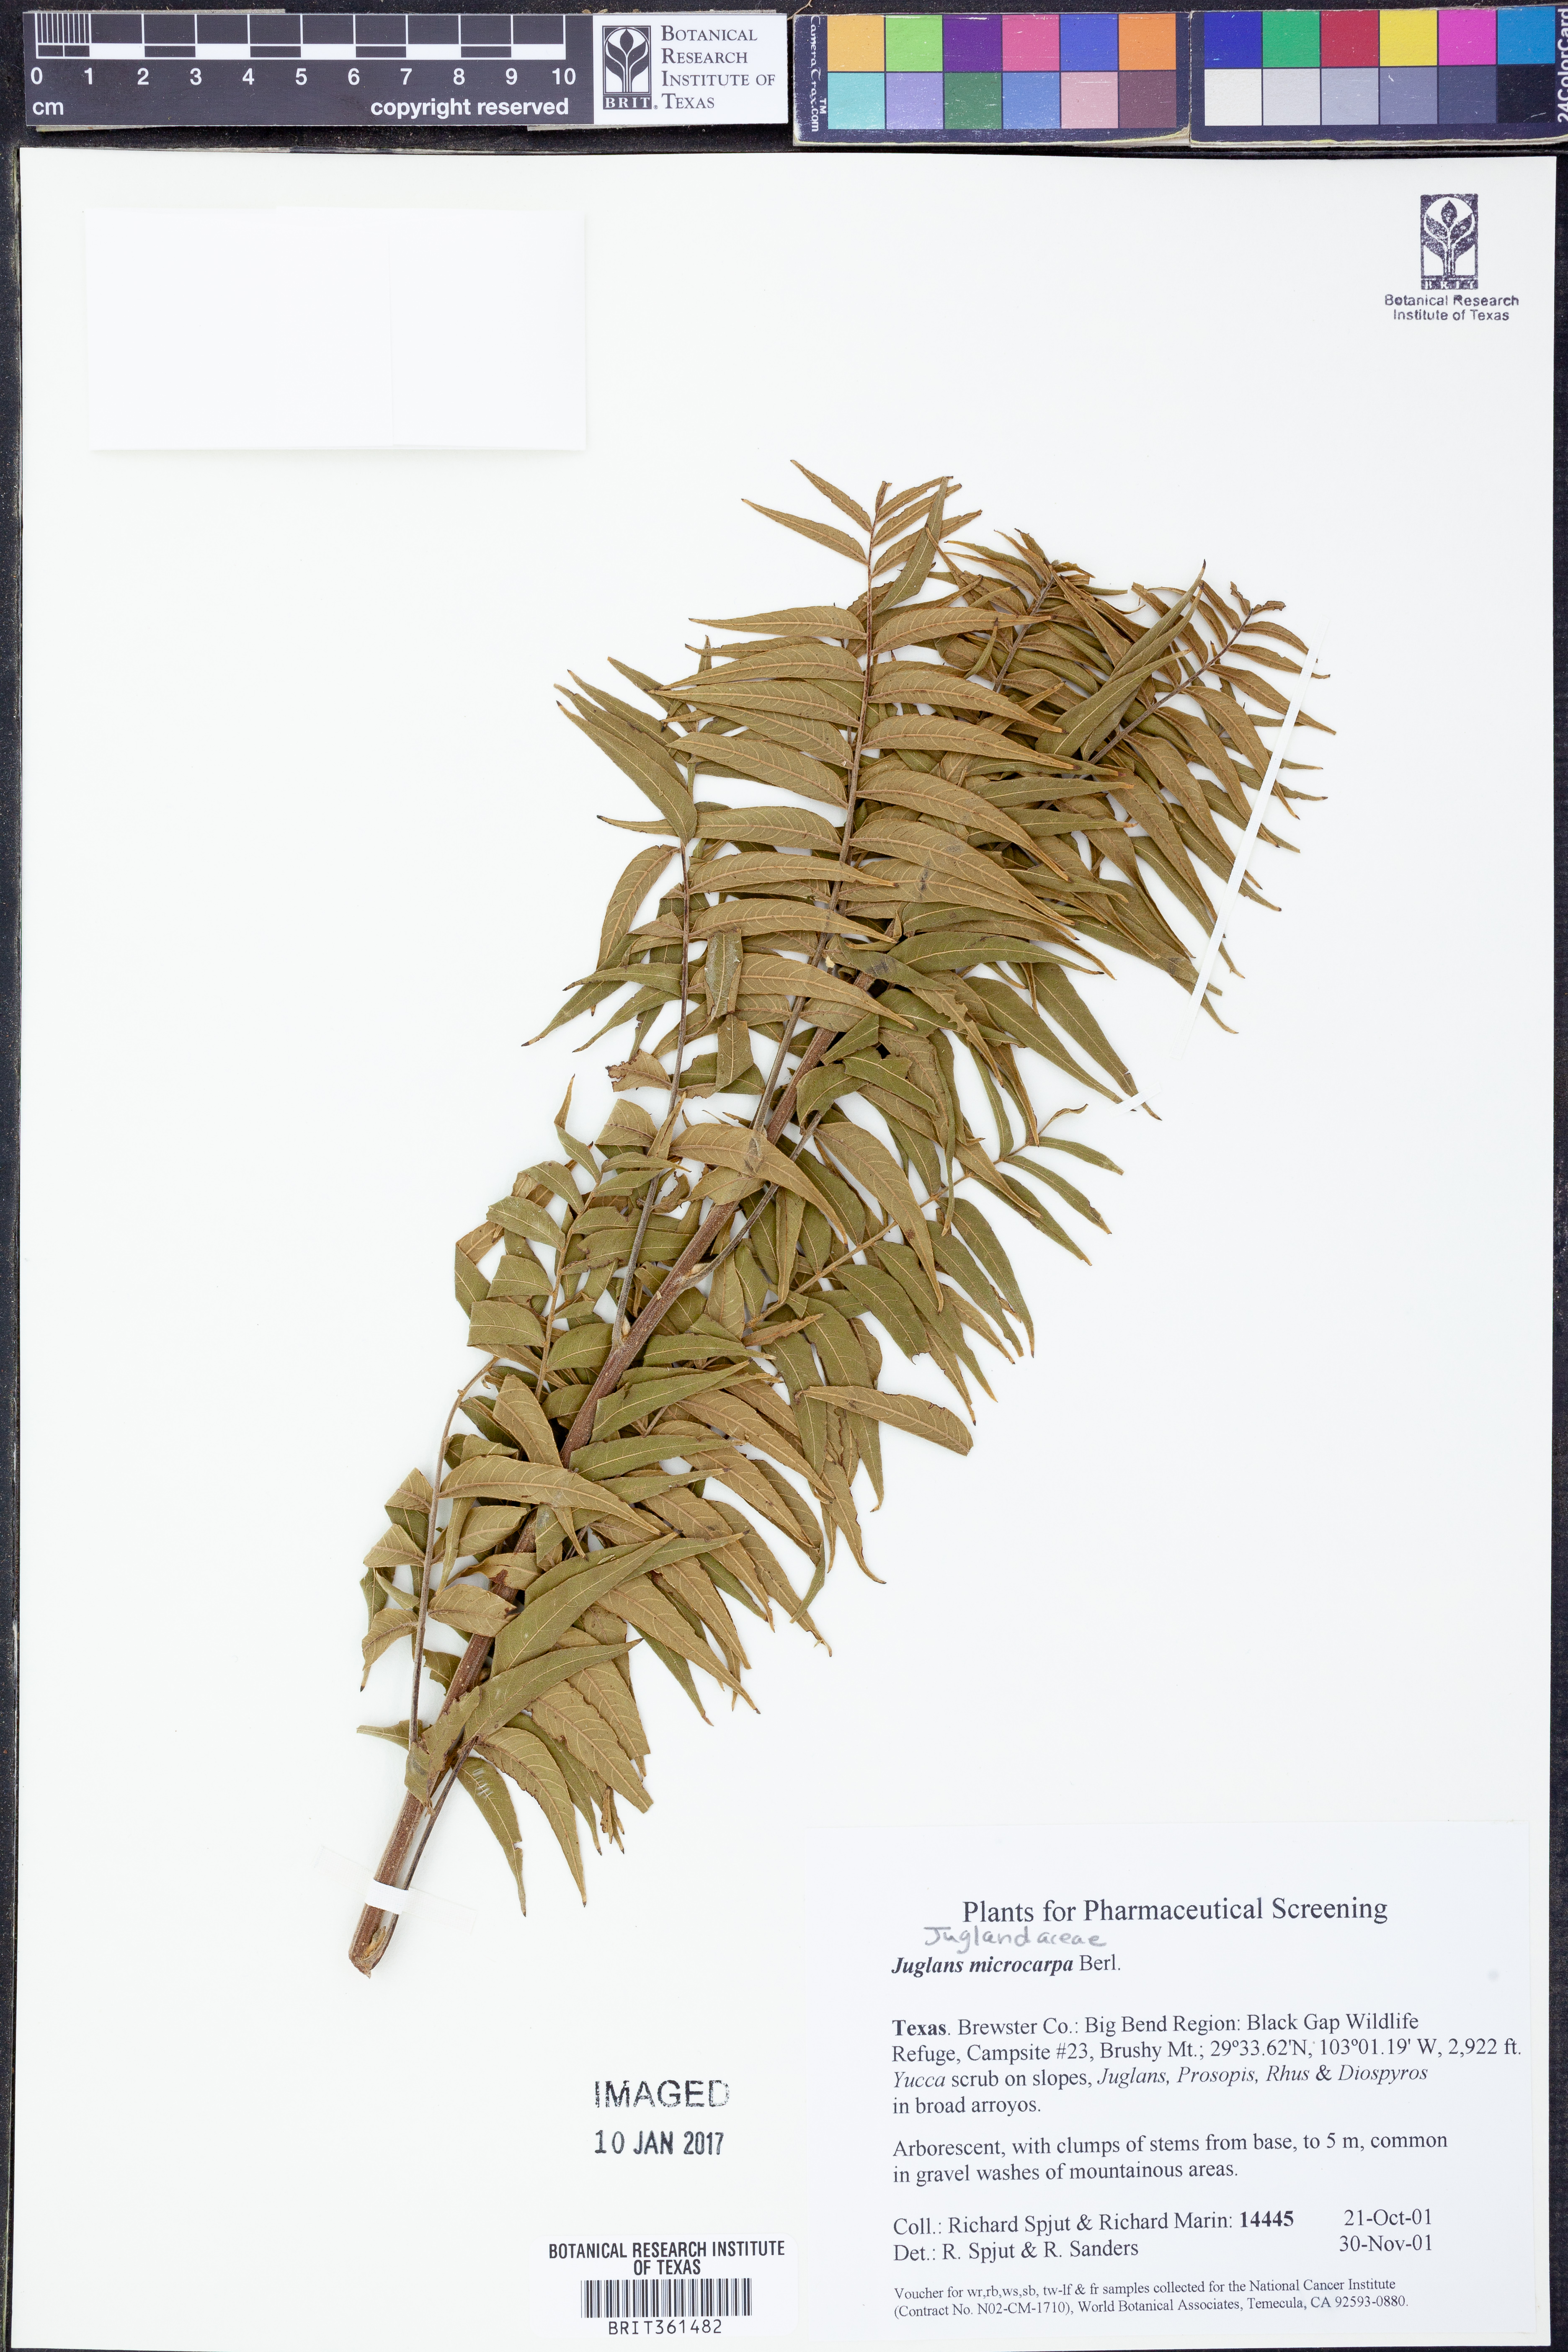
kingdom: Plantae
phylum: Tracheophyta
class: Magnoliopsida
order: Fagales
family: Juglandaceae
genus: Juglans
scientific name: Juglans microcarpa
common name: Texas walnut
